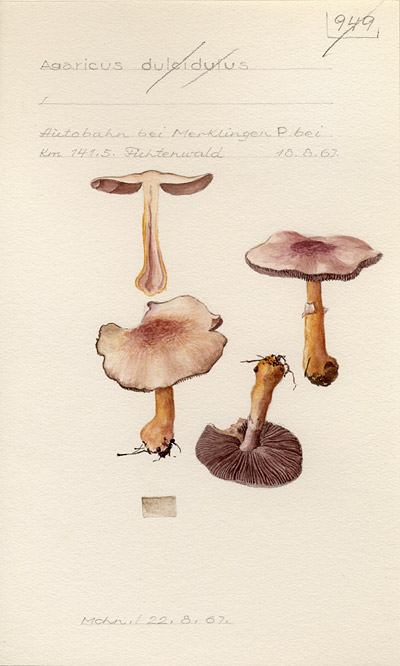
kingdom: Fungi
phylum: Basidiomycota
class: Agaricomycetes
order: Agaricales
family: Agaricaceae
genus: Agaricus
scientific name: Agaricus
